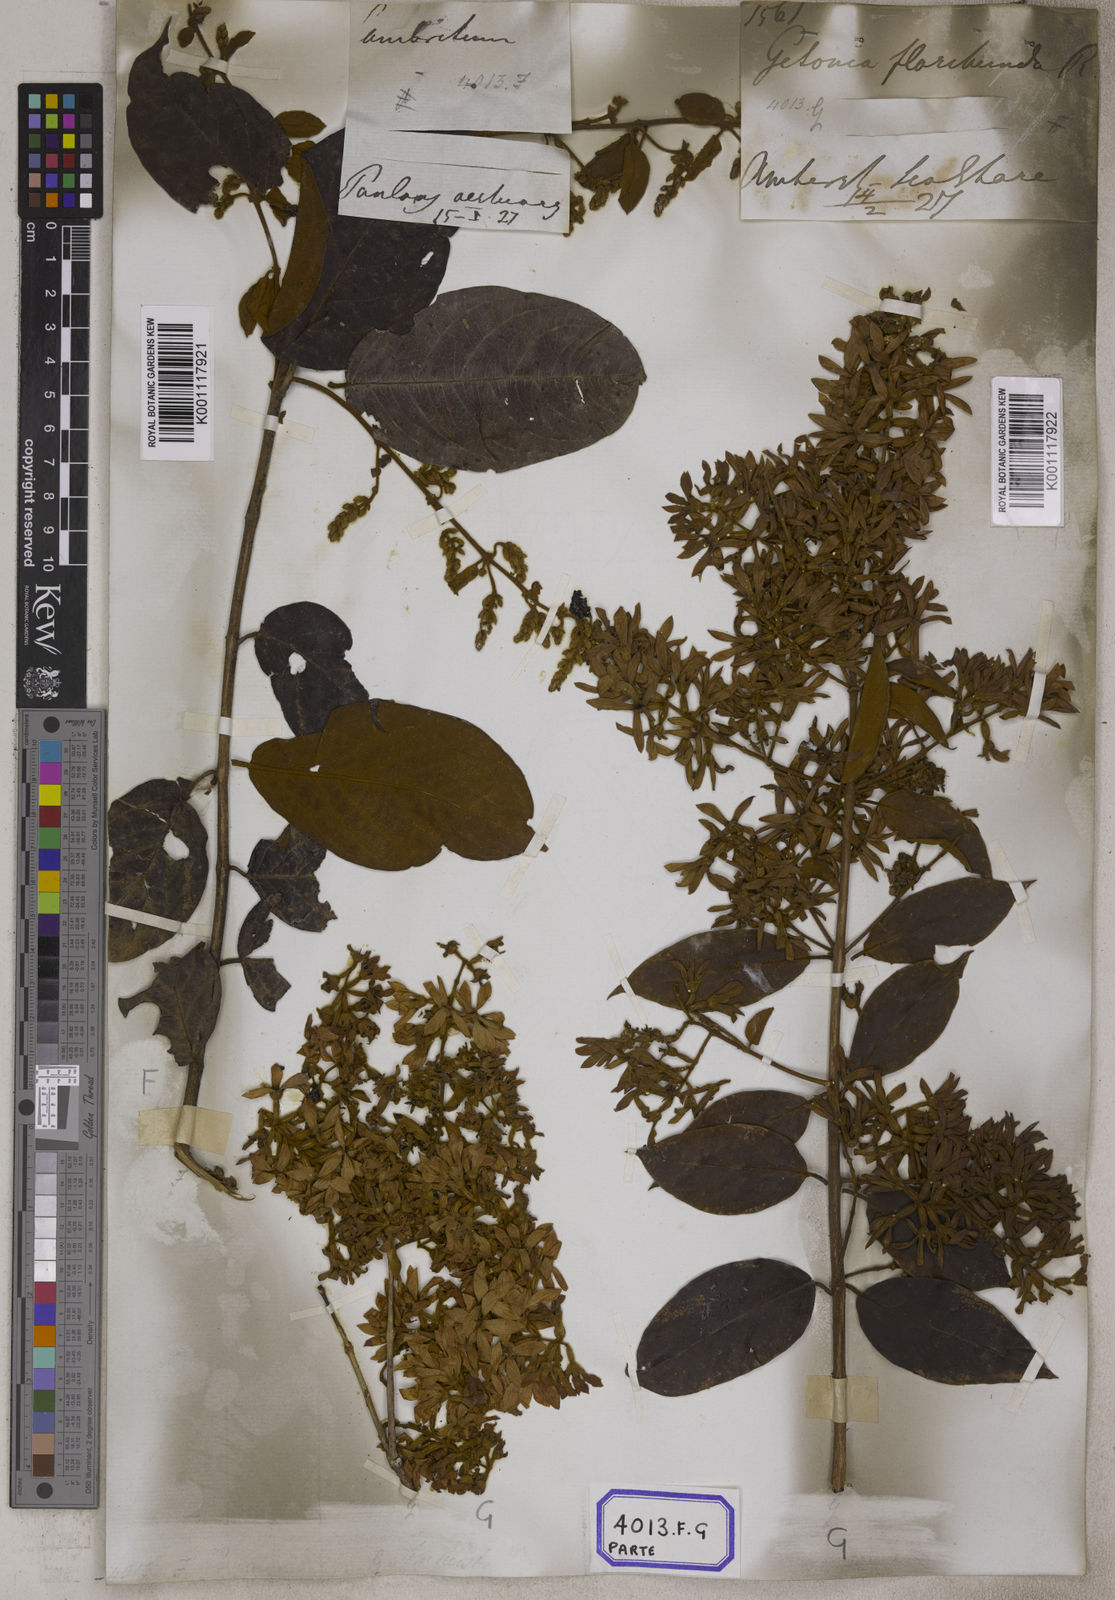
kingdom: Plantae
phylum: Tracheophyta
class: Magnoliopsida
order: Myrtales
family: Combretaceae
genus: Getonia
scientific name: Getonia floribunda
